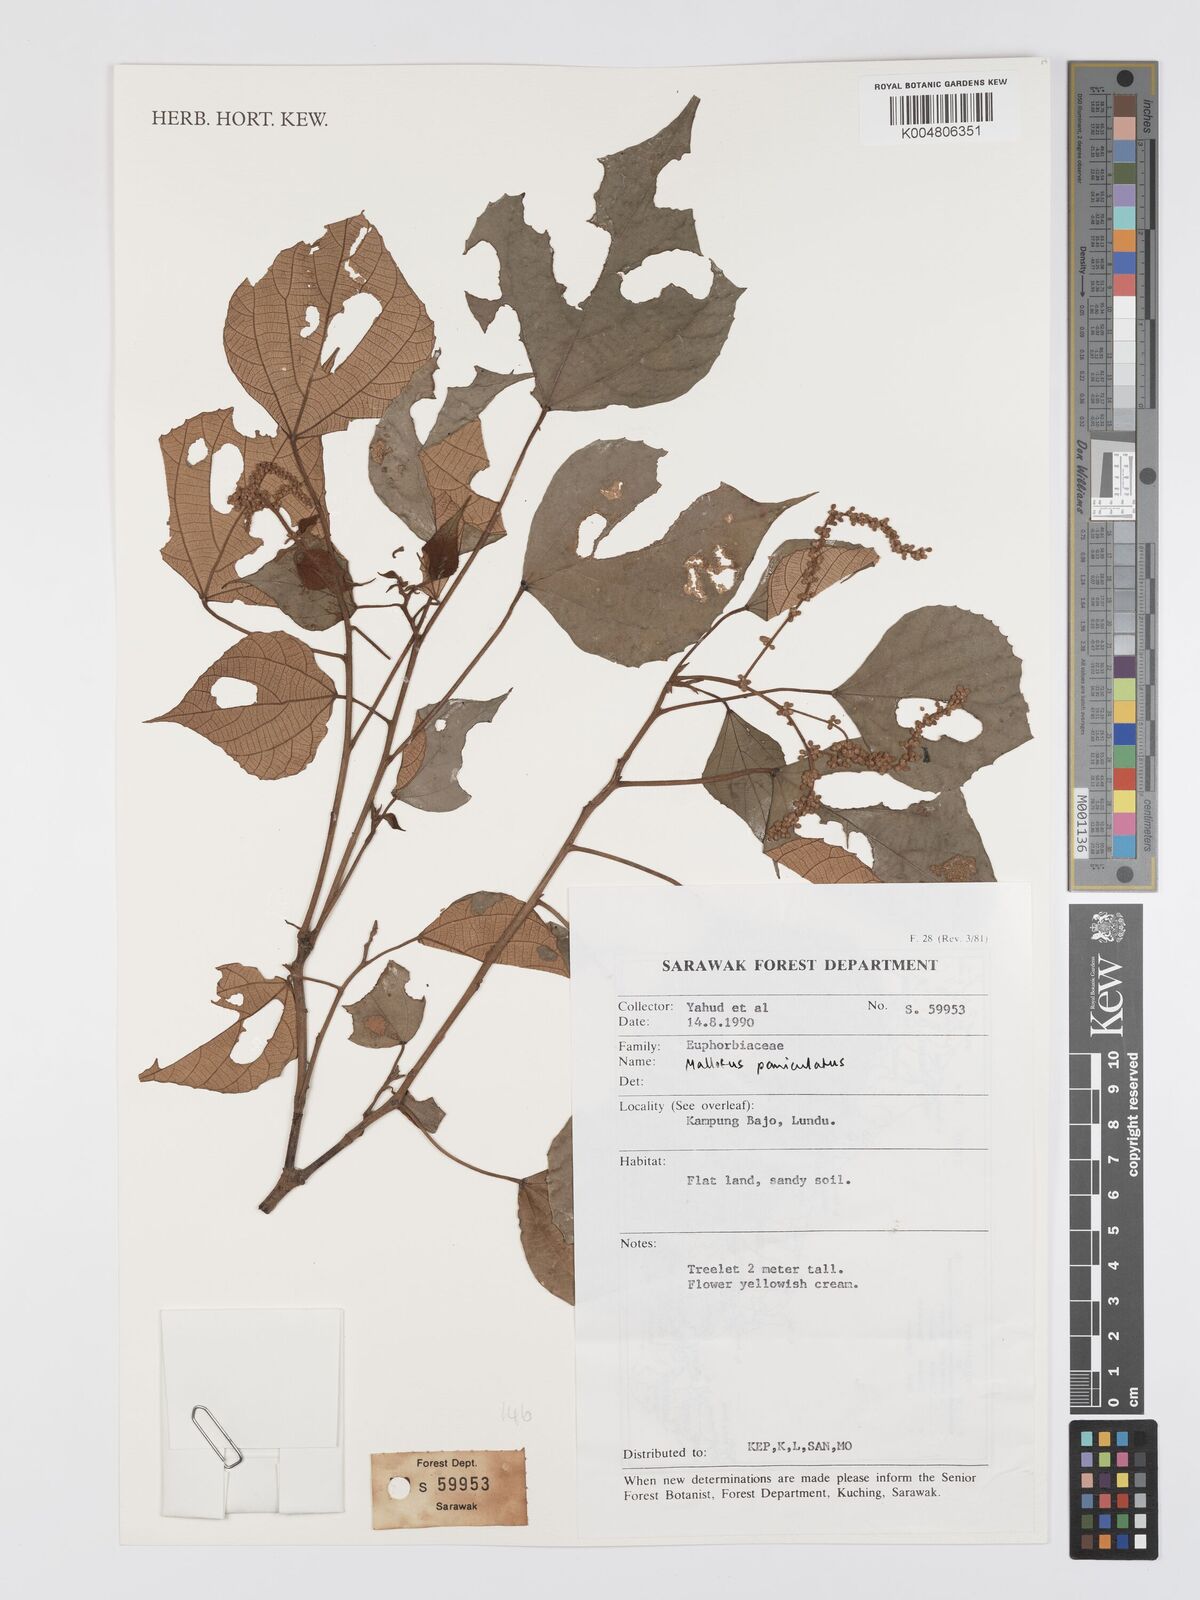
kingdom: Plantae
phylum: Tracheophyta
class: Magnoliopsida
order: Malpighiales
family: Euphorbiaceae
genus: Mallotus
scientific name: Mallotus paniculatus
